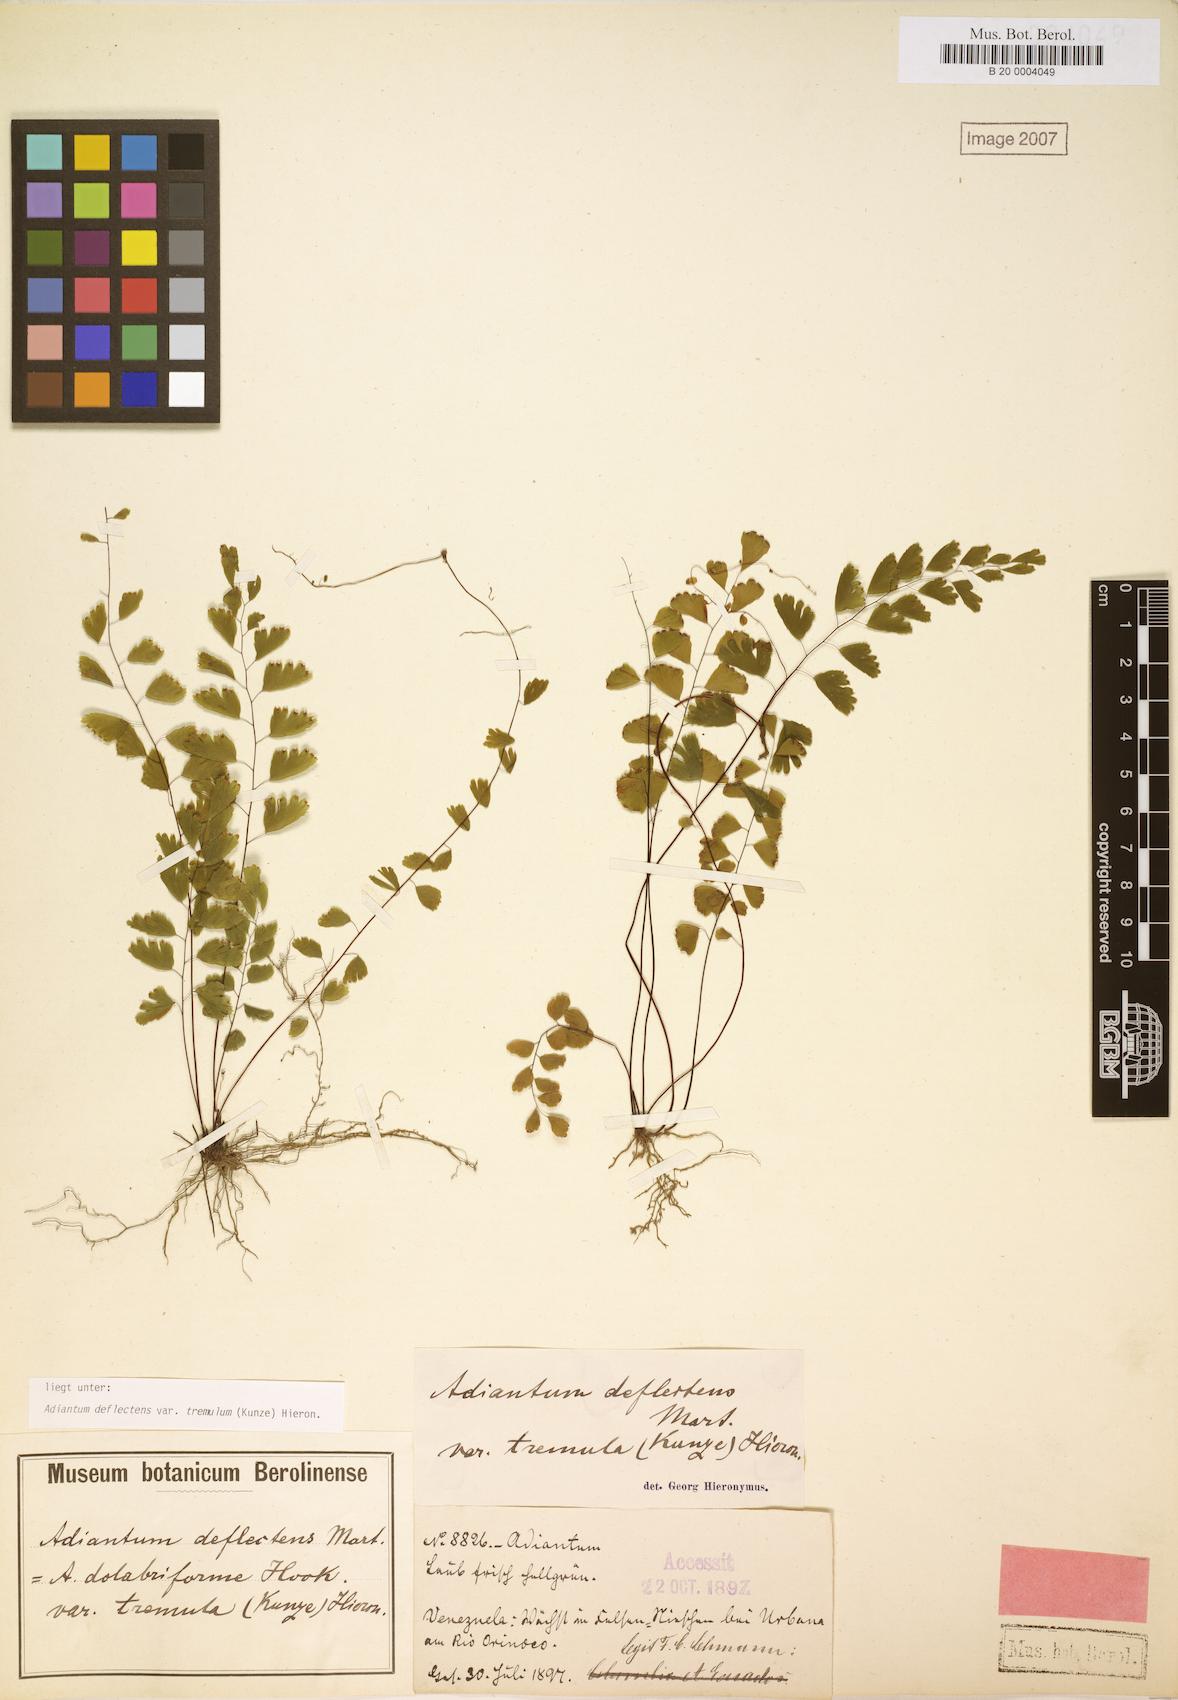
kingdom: Plantae
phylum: Tracheophyta
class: Polypodiopsida
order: Polypodiales
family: Pteridaceae
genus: Adiantum
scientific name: Adiantum deflectens
